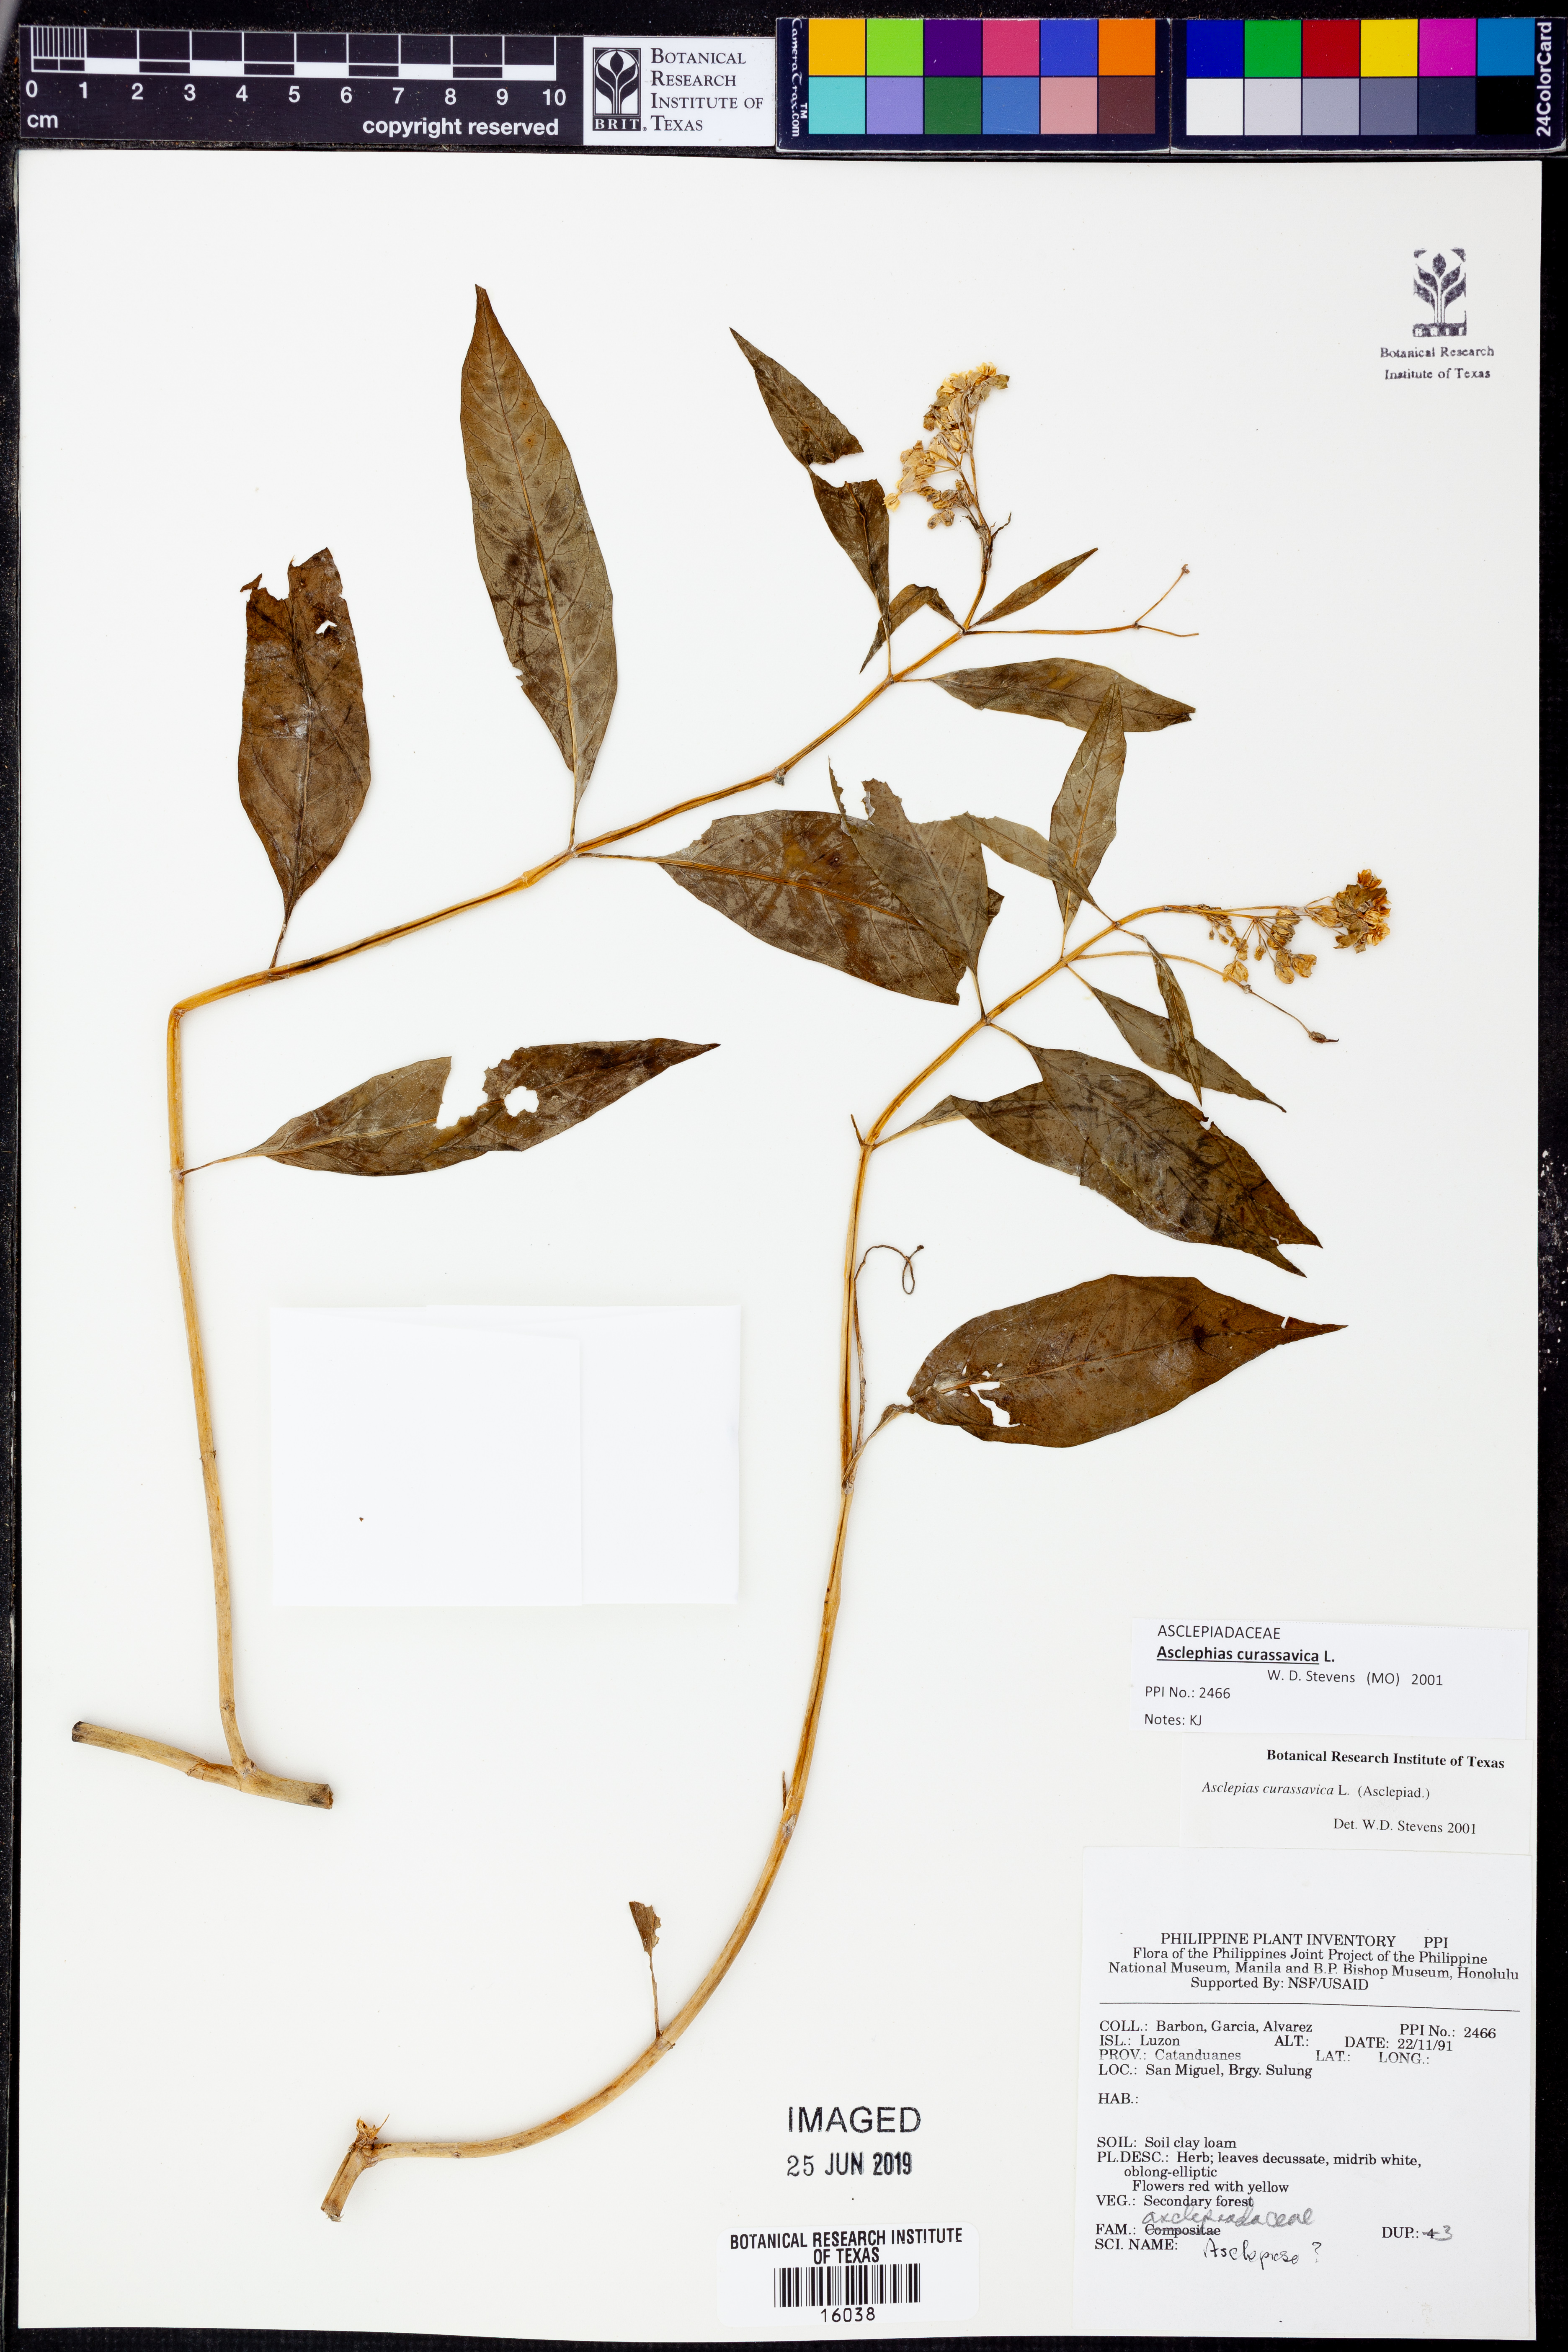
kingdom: Plantae
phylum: Tracheophyta
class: Magnoliopsida
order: Gentianales
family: Apocynaceae
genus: Asclepias
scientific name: Asclepias curassavica
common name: Bloodflower
